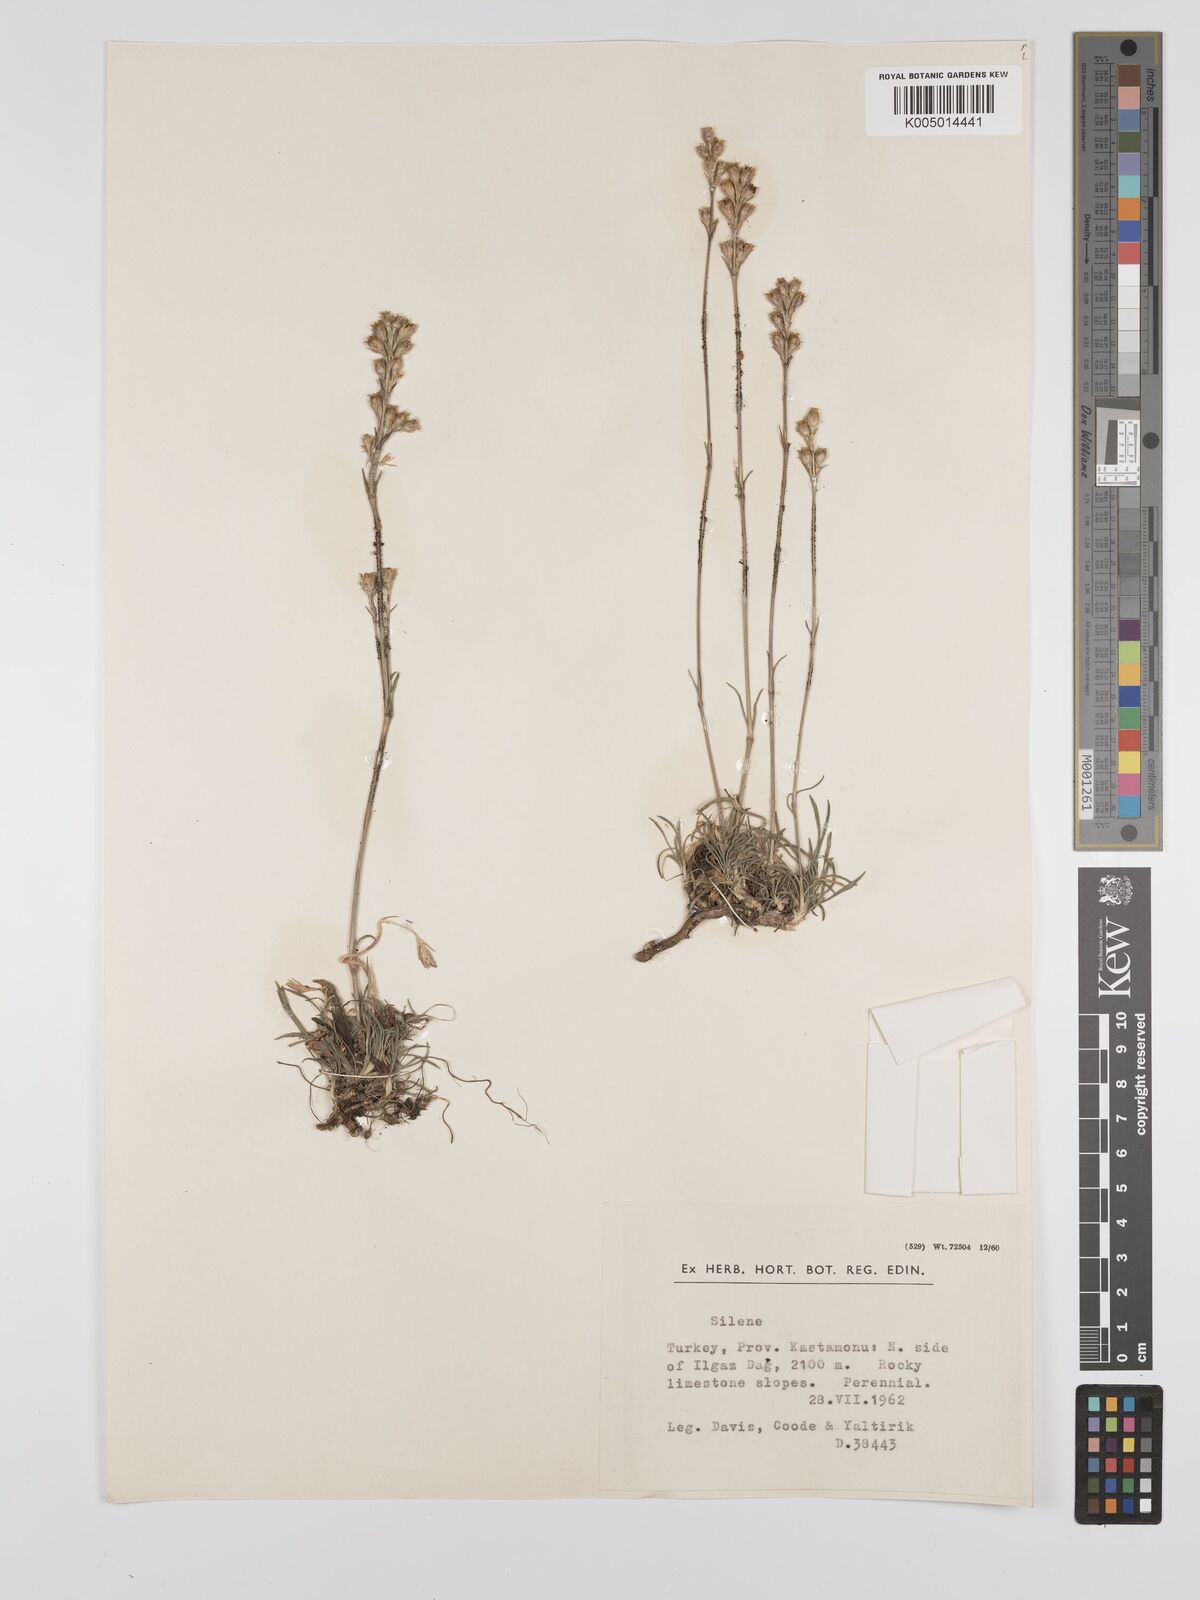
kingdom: Plantae
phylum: Tracheophyta
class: Magnoliopsida
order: Caryophyllales
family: Caryophyllaceae
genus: Silene
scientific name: Silene
